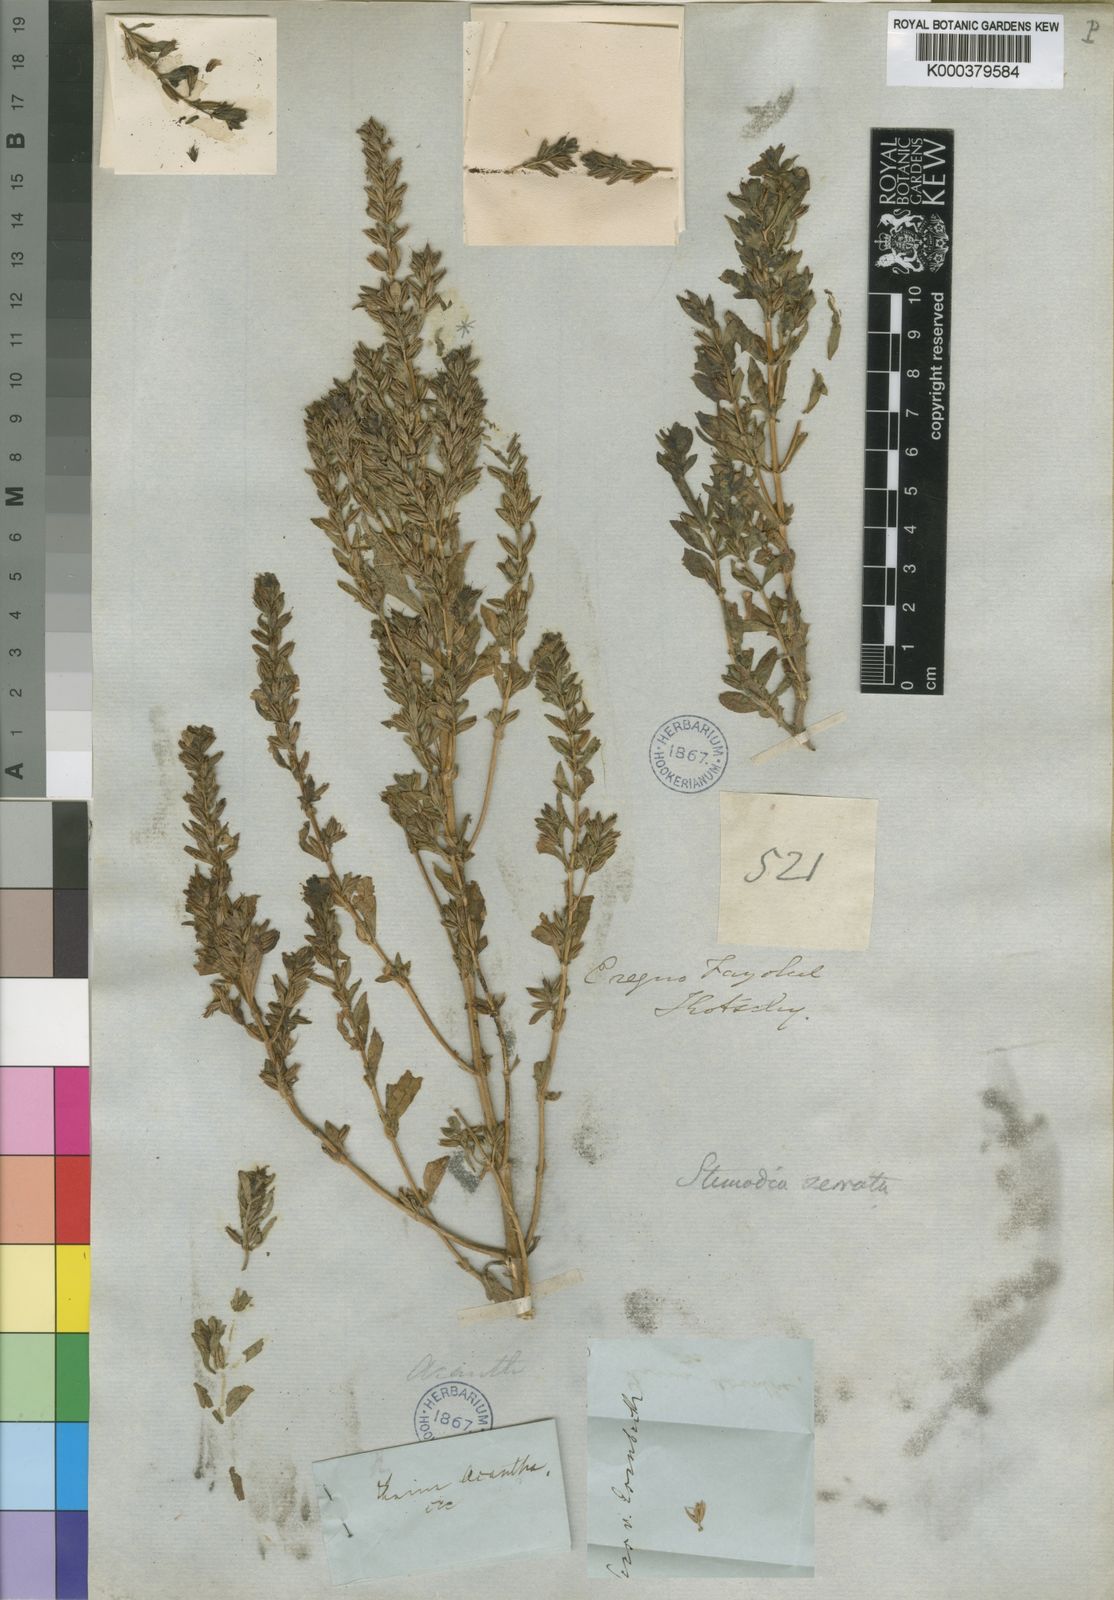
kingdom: Plantae
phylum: Tracheophyta
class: Magnoliopsida
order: Lamiales
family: Plantaginaceae
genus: Stemodia
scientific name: Stemodia serrata
